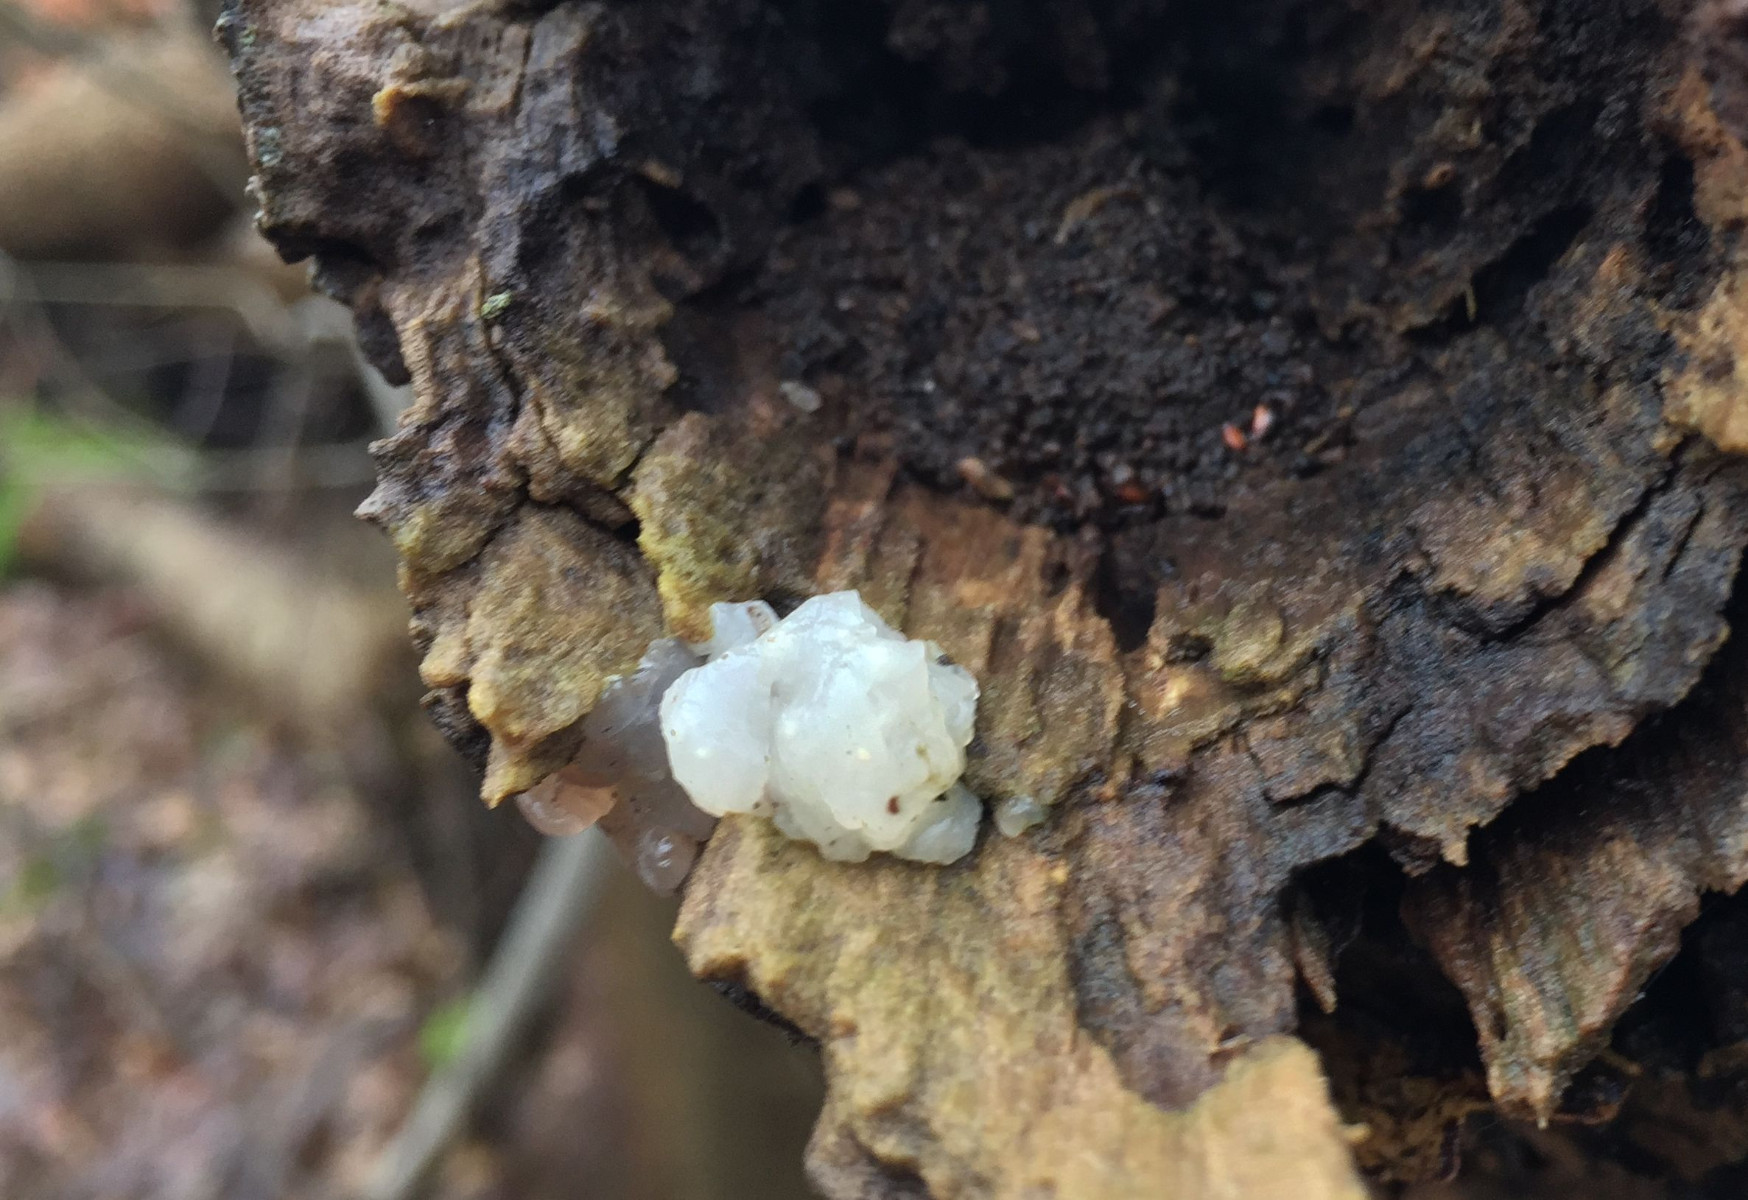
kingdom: Fungi
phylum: Basidiomycota
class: Agaricomycetes
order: Auriculariales
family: Hyaloriaceae
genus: Myxarium
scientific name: Myxarium nucleatum
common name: klar bævretop
